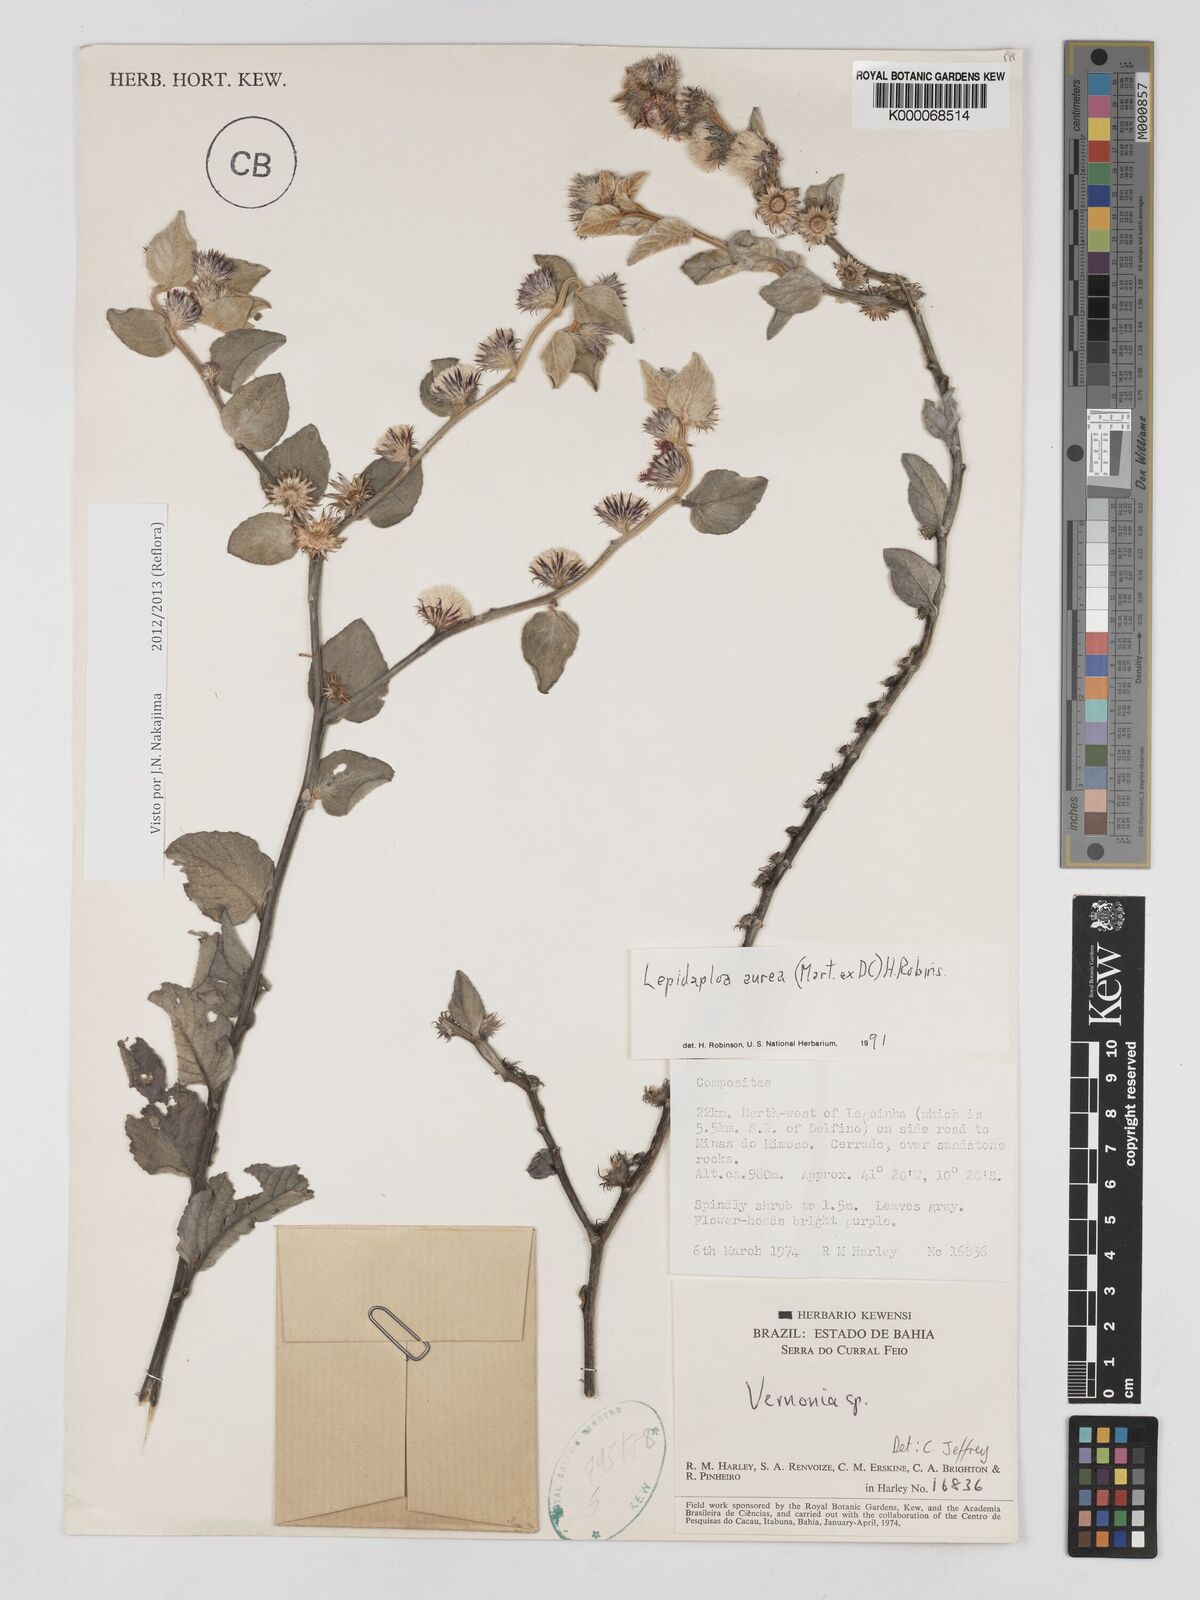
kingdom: Plantae
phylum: Tracheophyta
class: Magnoliopsida
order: Asterales
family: Asteraceae
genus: Lepidaploa
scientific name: Lepidaploa aurea
